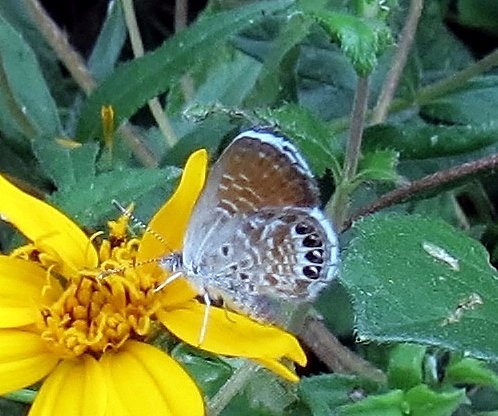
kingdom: Animalia
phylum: Arthropoda
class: Insecta
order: Lepidoptera
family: Lycaenidae
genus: Brephidium
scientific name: Brephidium exilis
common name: Western Pygmy-Blue
